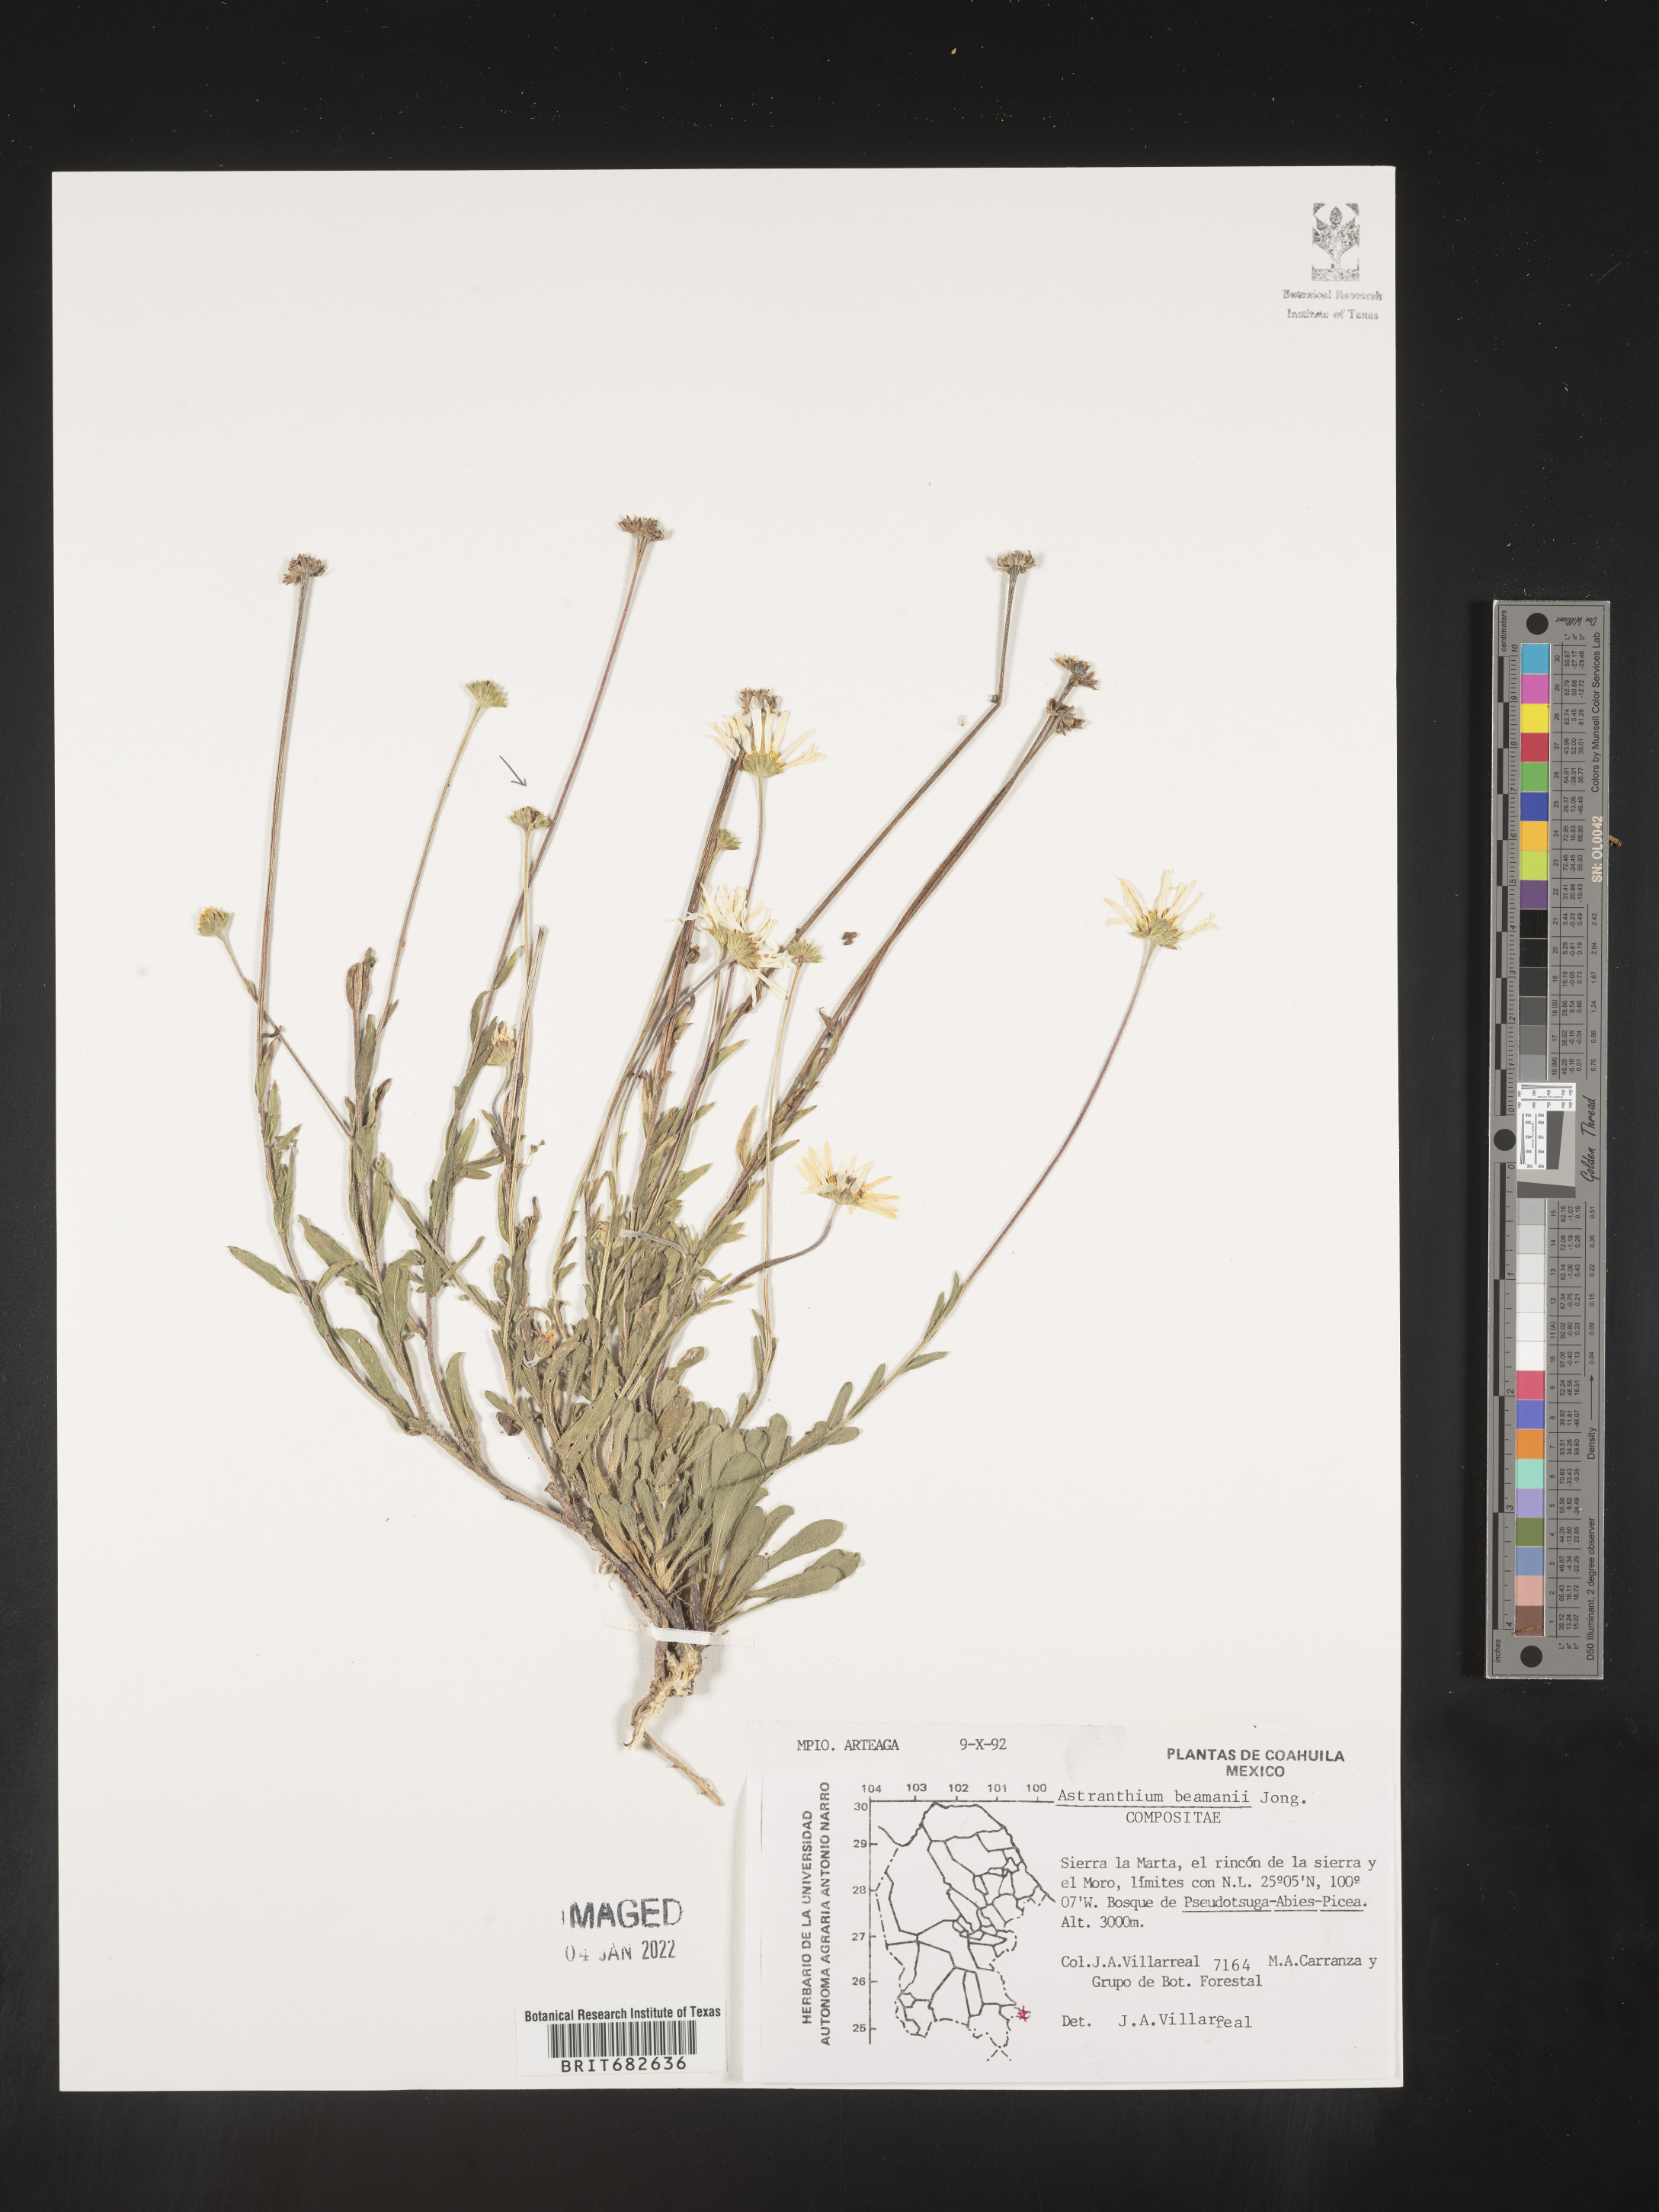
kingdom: Plantae
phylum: Tracheophyta
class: Magnoliopsida
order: Asterales
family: Asteraceae
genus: Astranthium
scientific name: Astranthium
